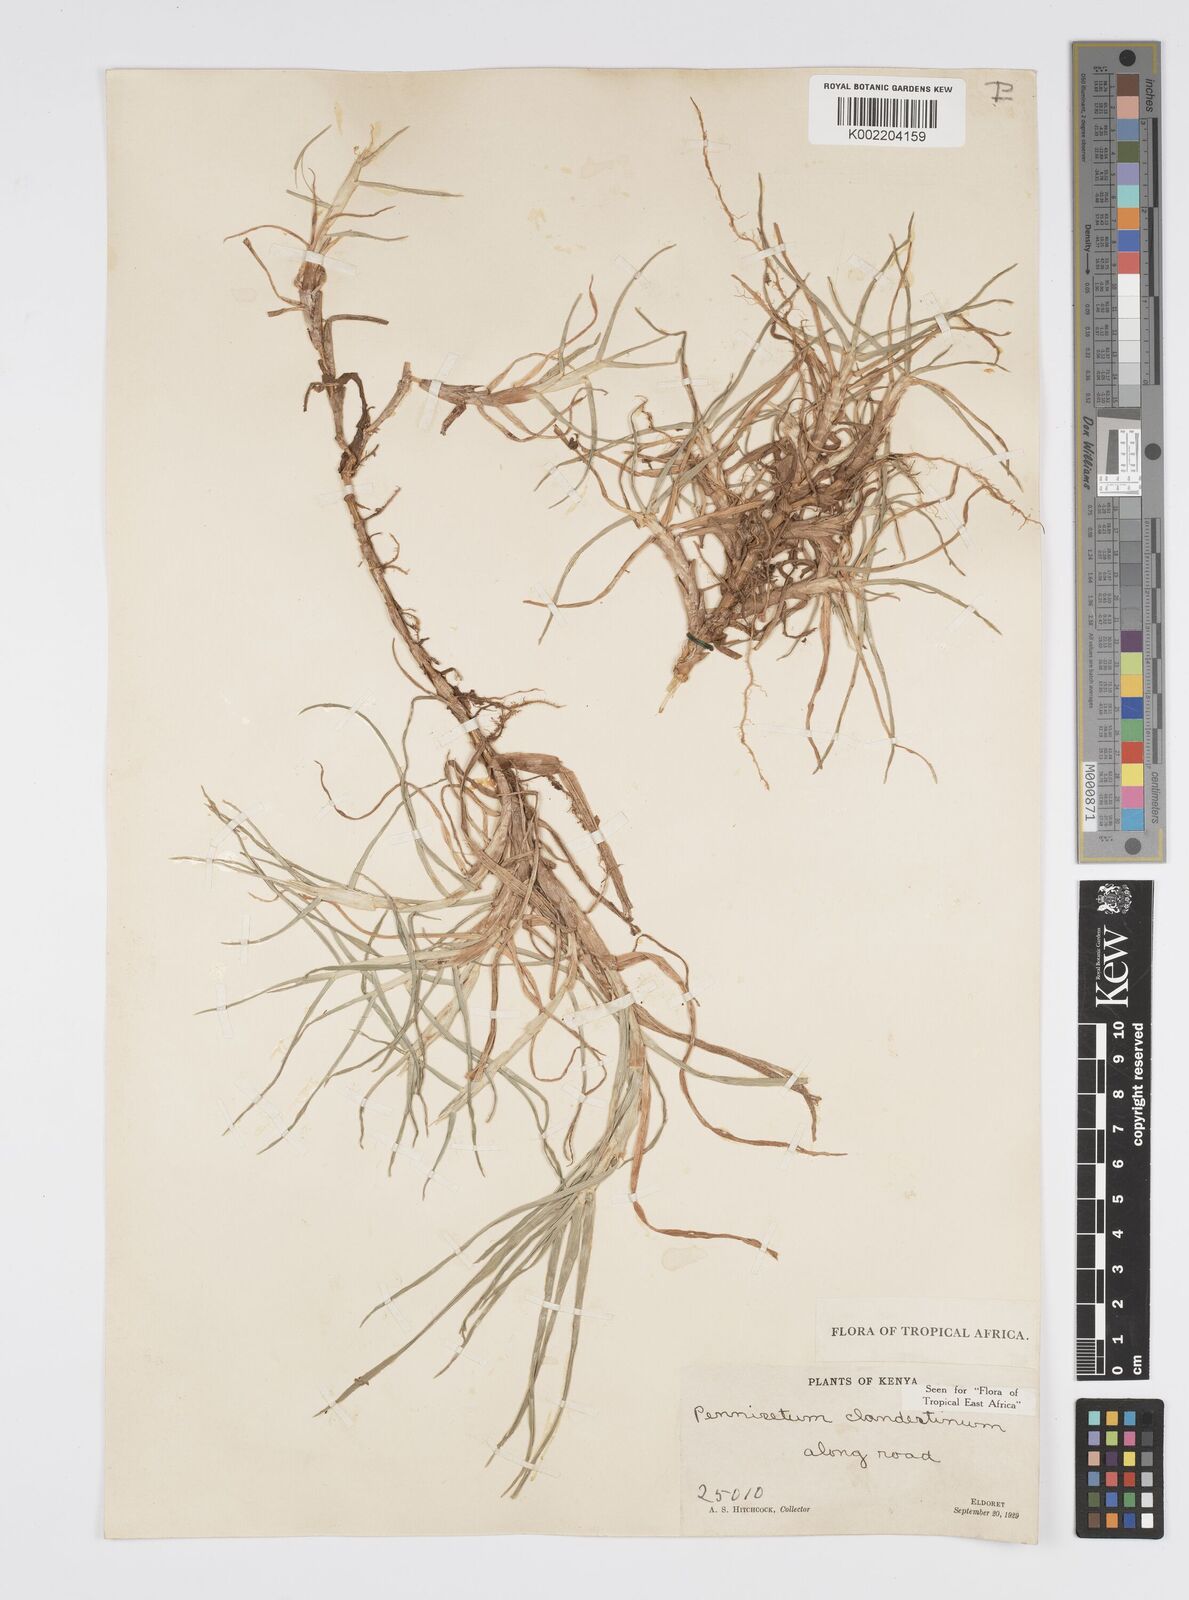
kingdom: Plantae
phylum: Tracheophyta
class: Liliopsida
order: Poales
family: Poaceae
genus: Cenchrus
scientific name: Cenchrus clandestinus
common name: Kikuyugrass
